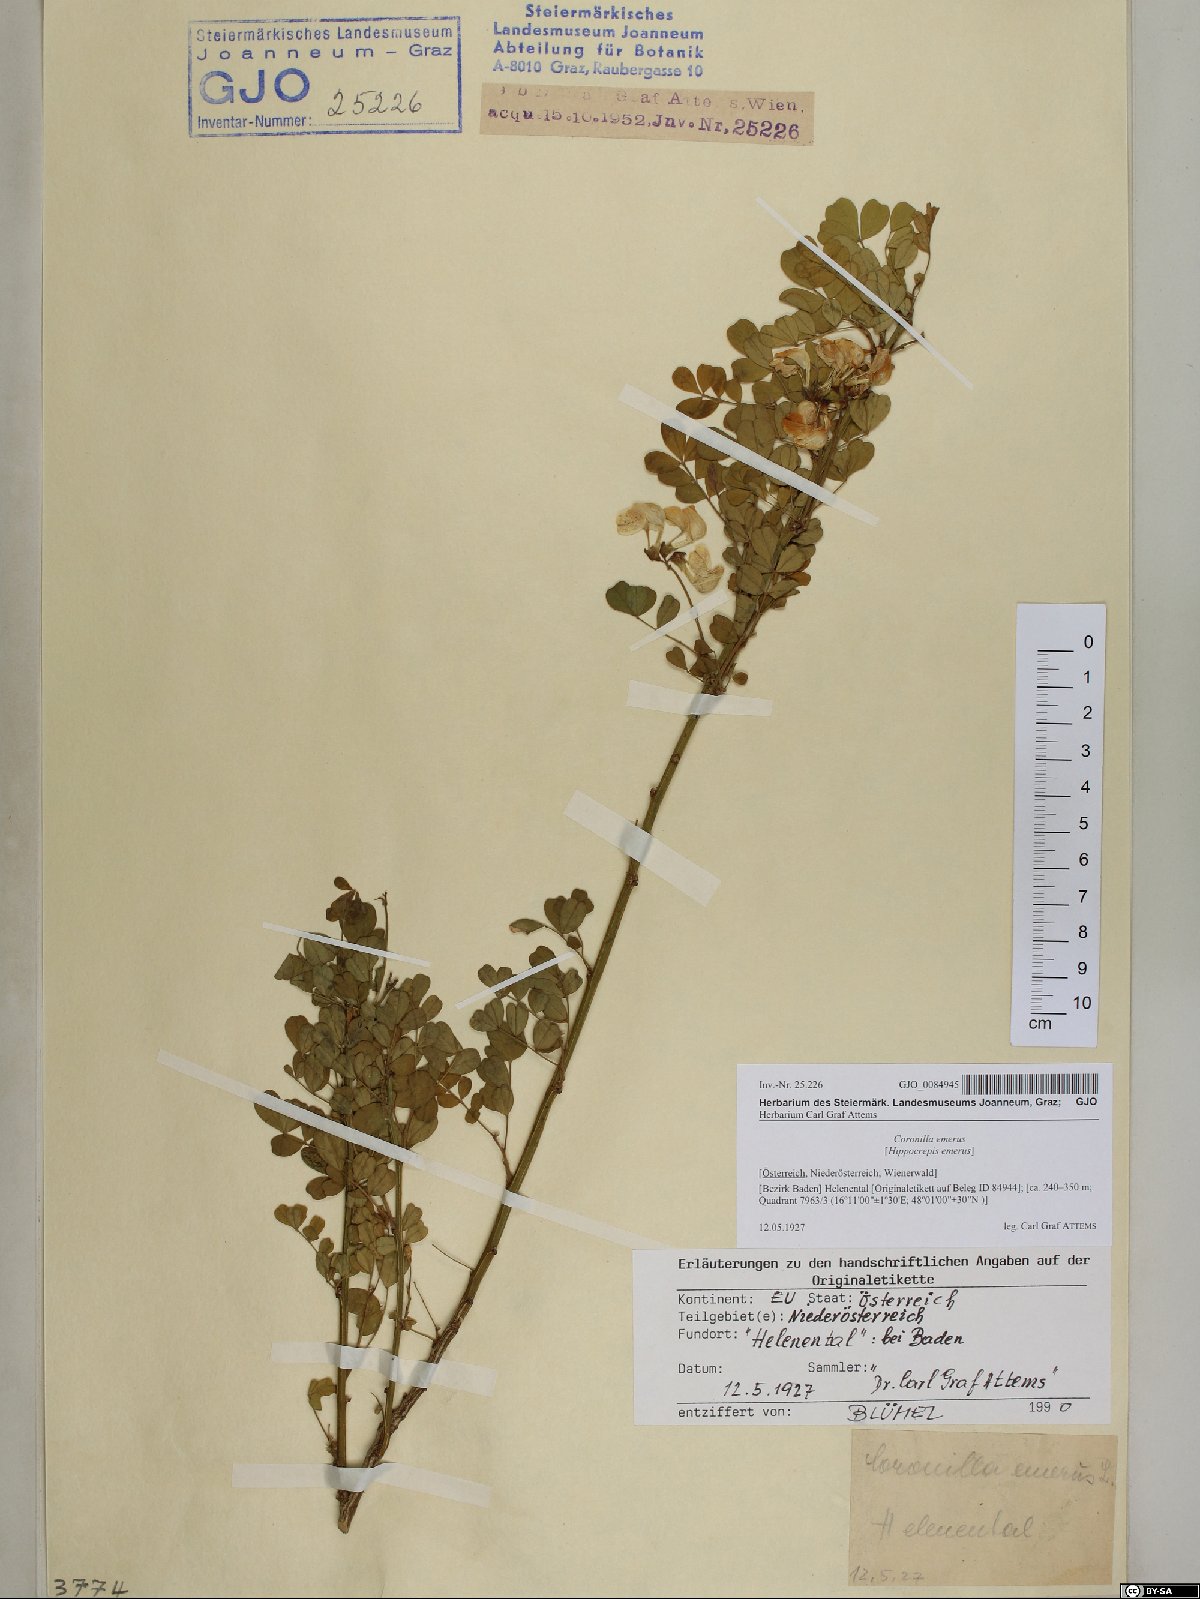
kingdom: Plantae
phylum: Tracheophyta
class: Magnoliopsida
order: Fabales
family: Fabaceae
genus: Hippocrepis
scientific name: Hippocrepis emerus
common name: Scorpion senna
